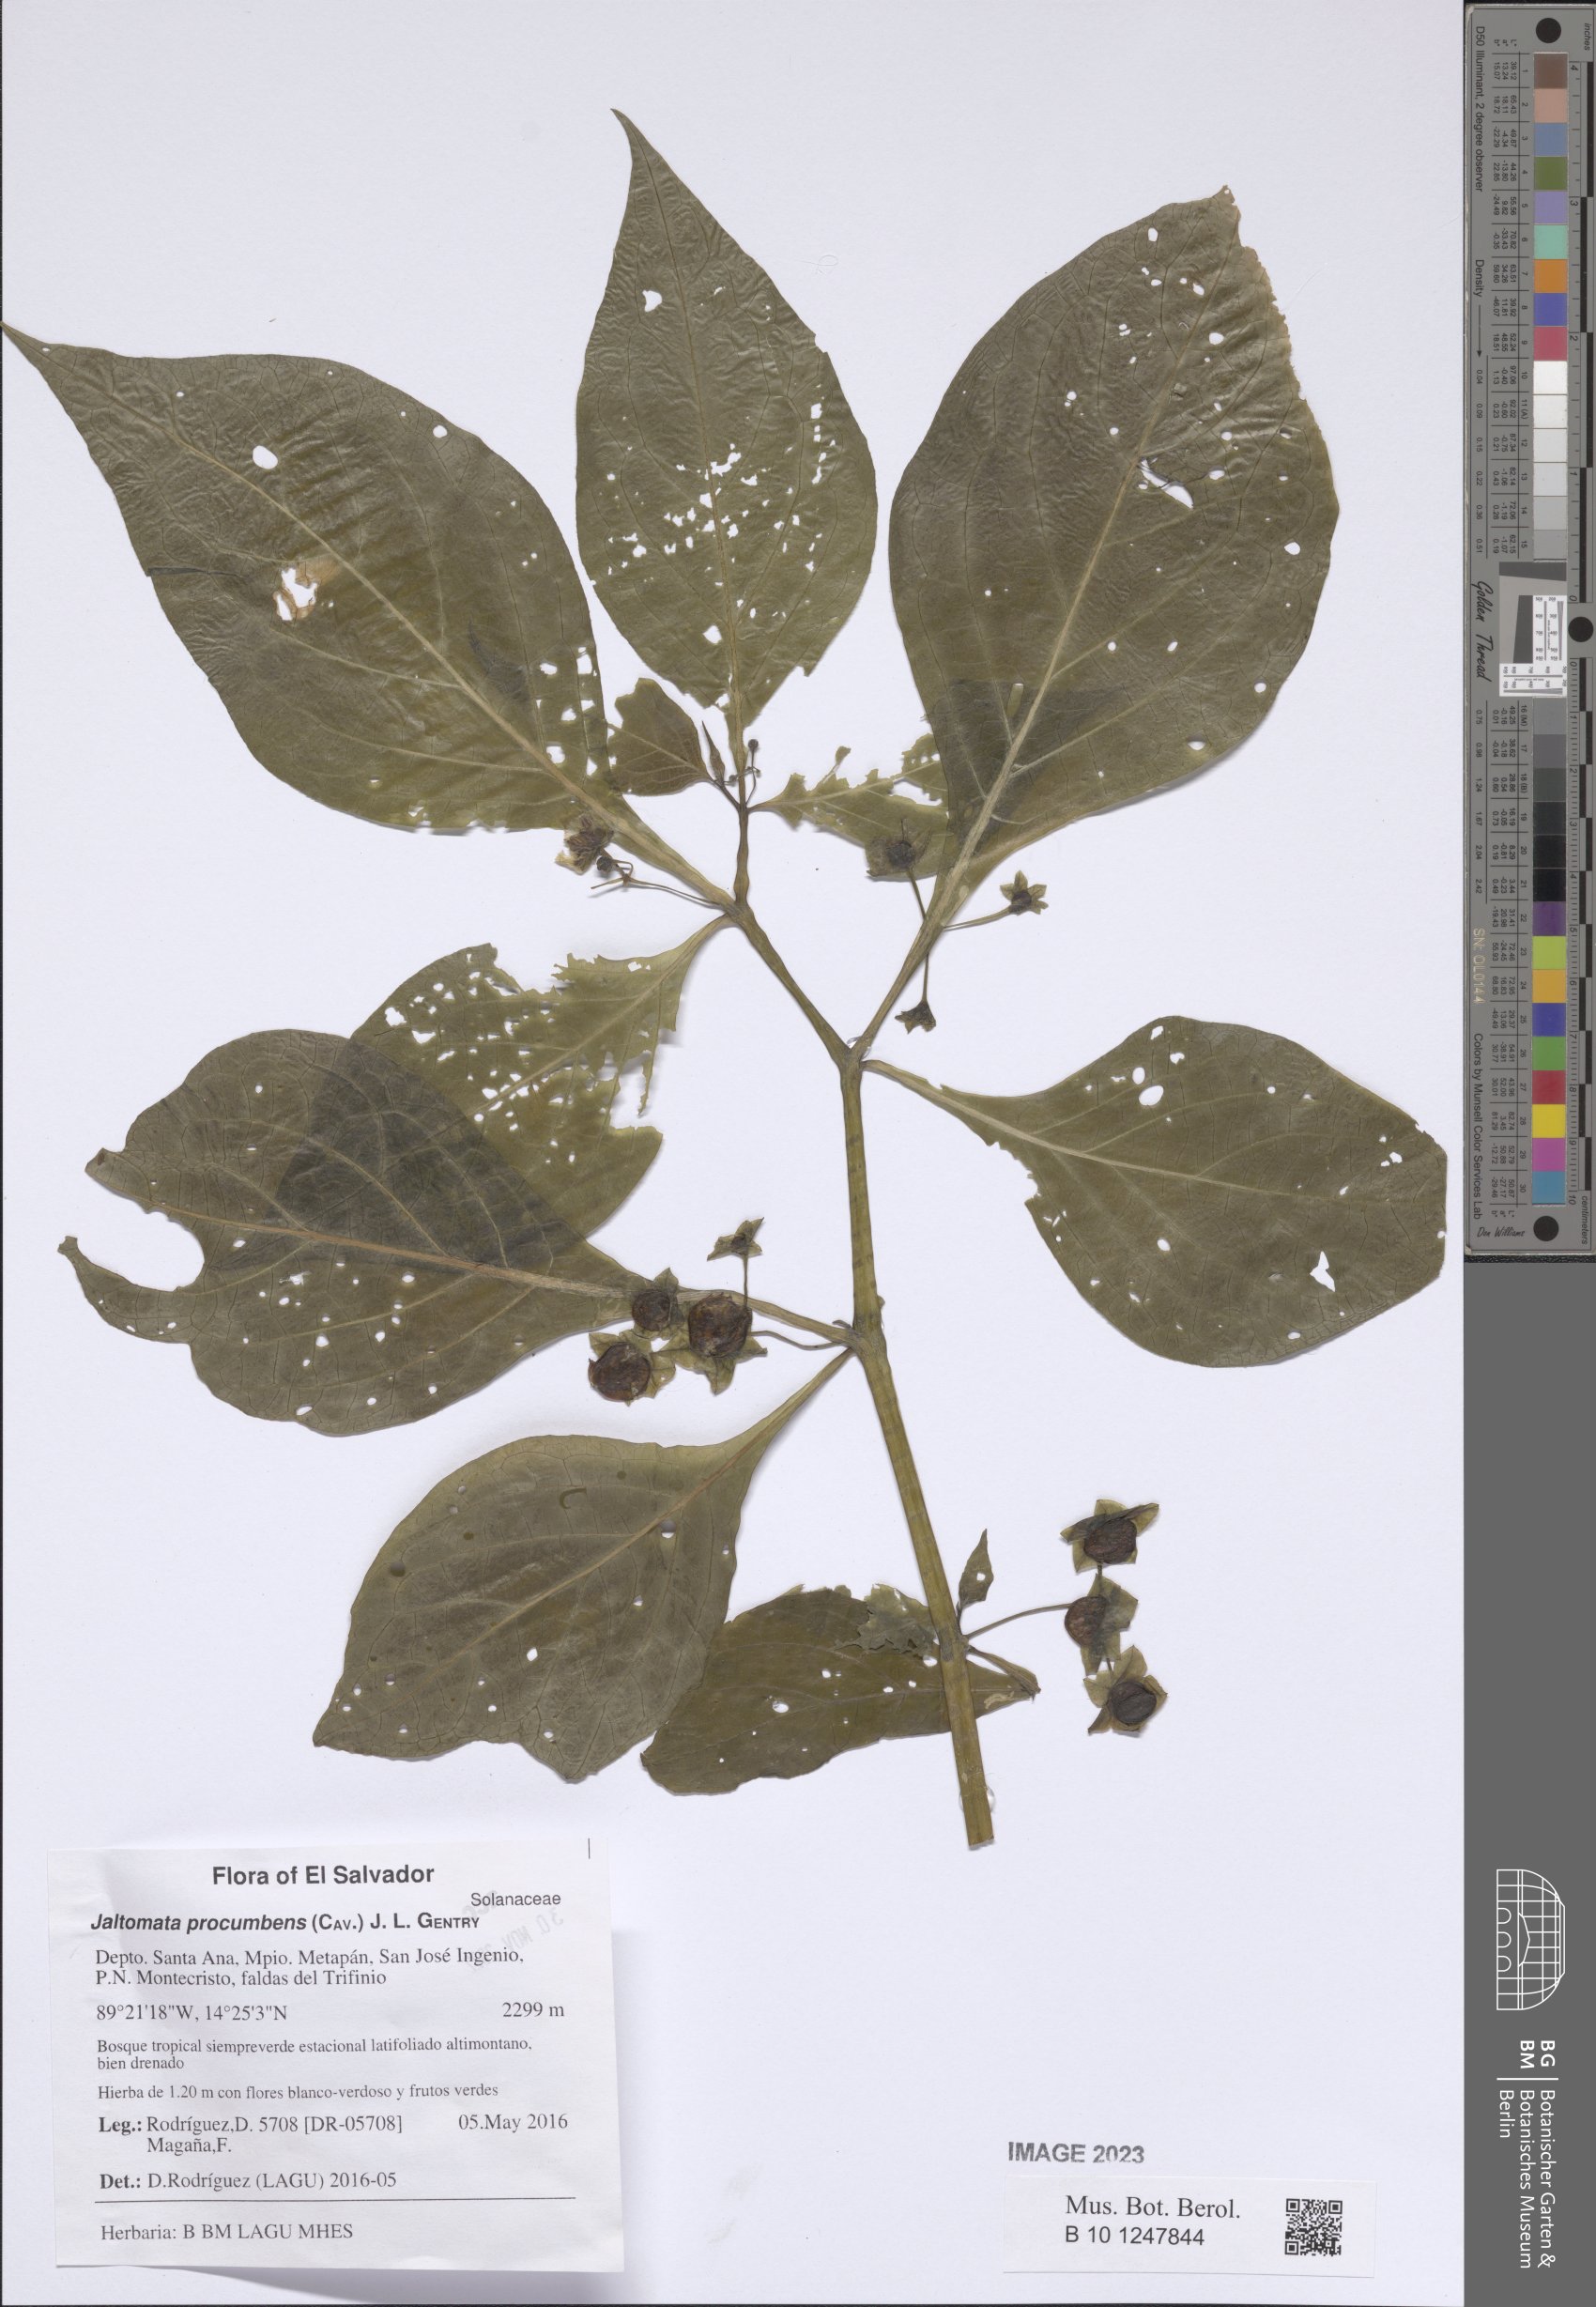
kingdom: Plantae
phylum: Tracheophyta
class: Magnoliopsida
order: Solanales
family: Solanaceae
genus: Jaltomata
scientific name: Jaltomata procumbens
